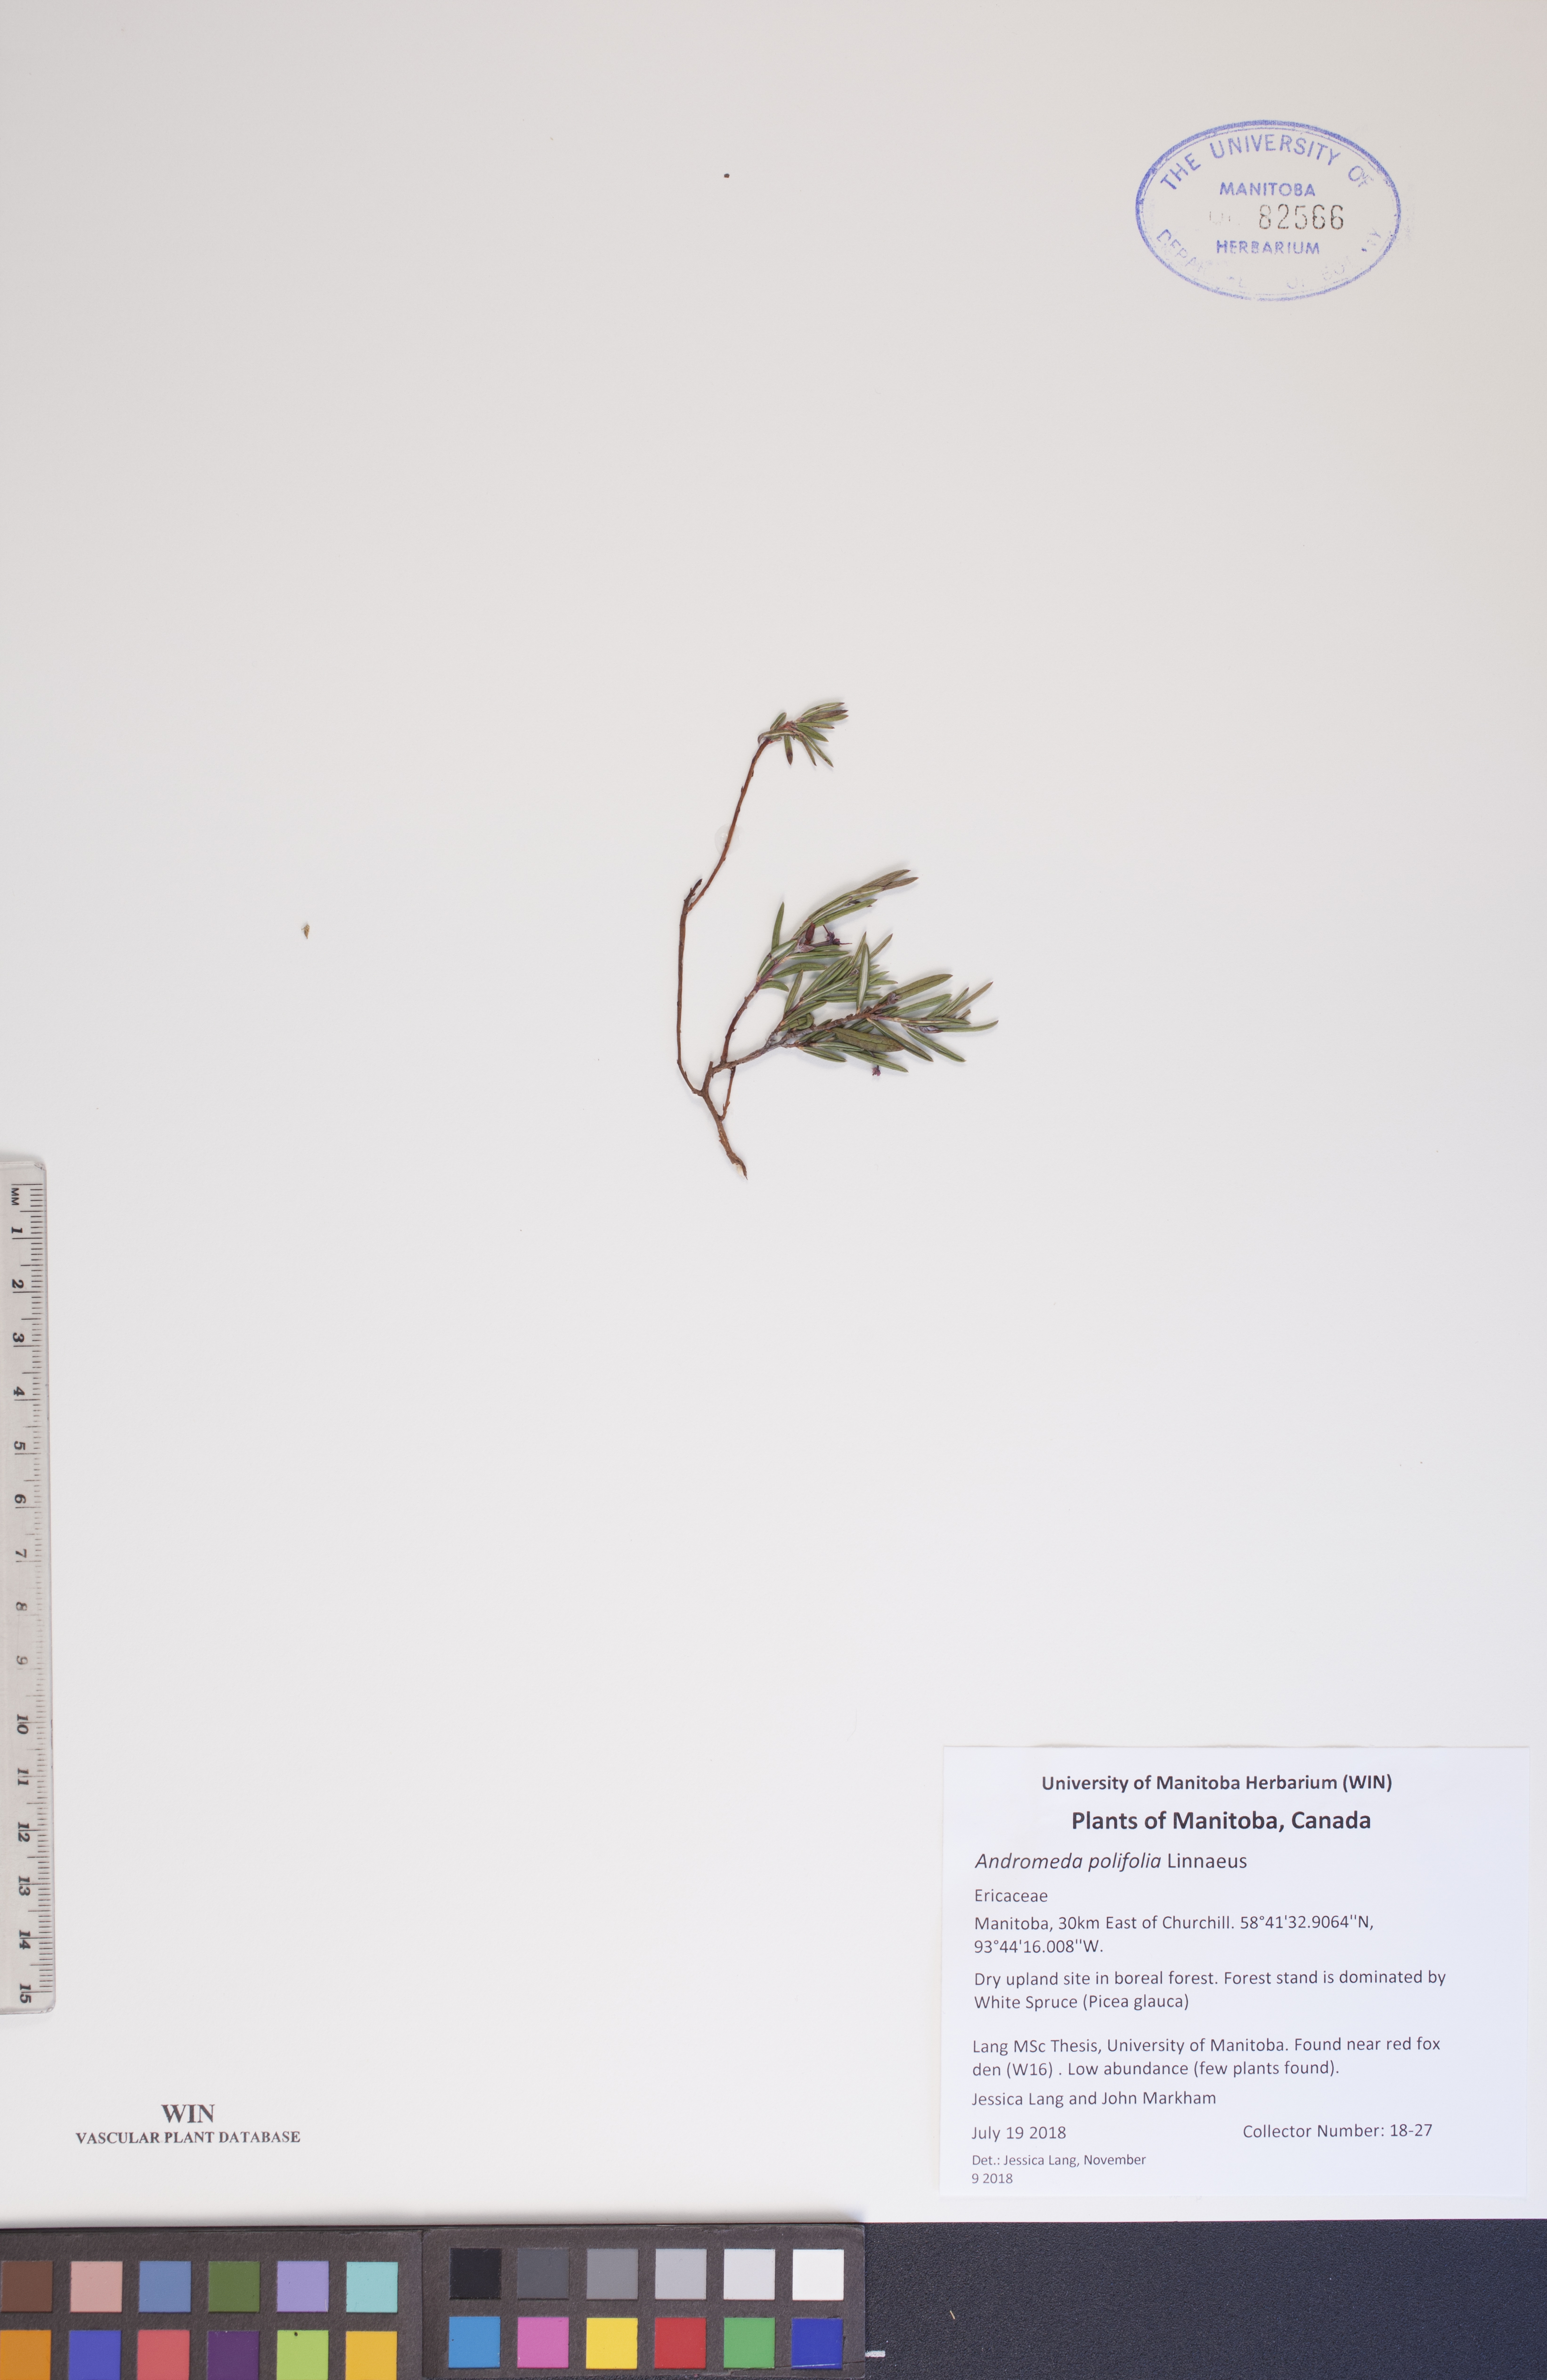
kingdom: Plantae
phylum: Tracheophyta
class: Magnoliopsida
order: Ericales
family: Ericaceae
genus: Andromeda
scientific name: Andromeda polifolia
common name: Bog-rosemary
